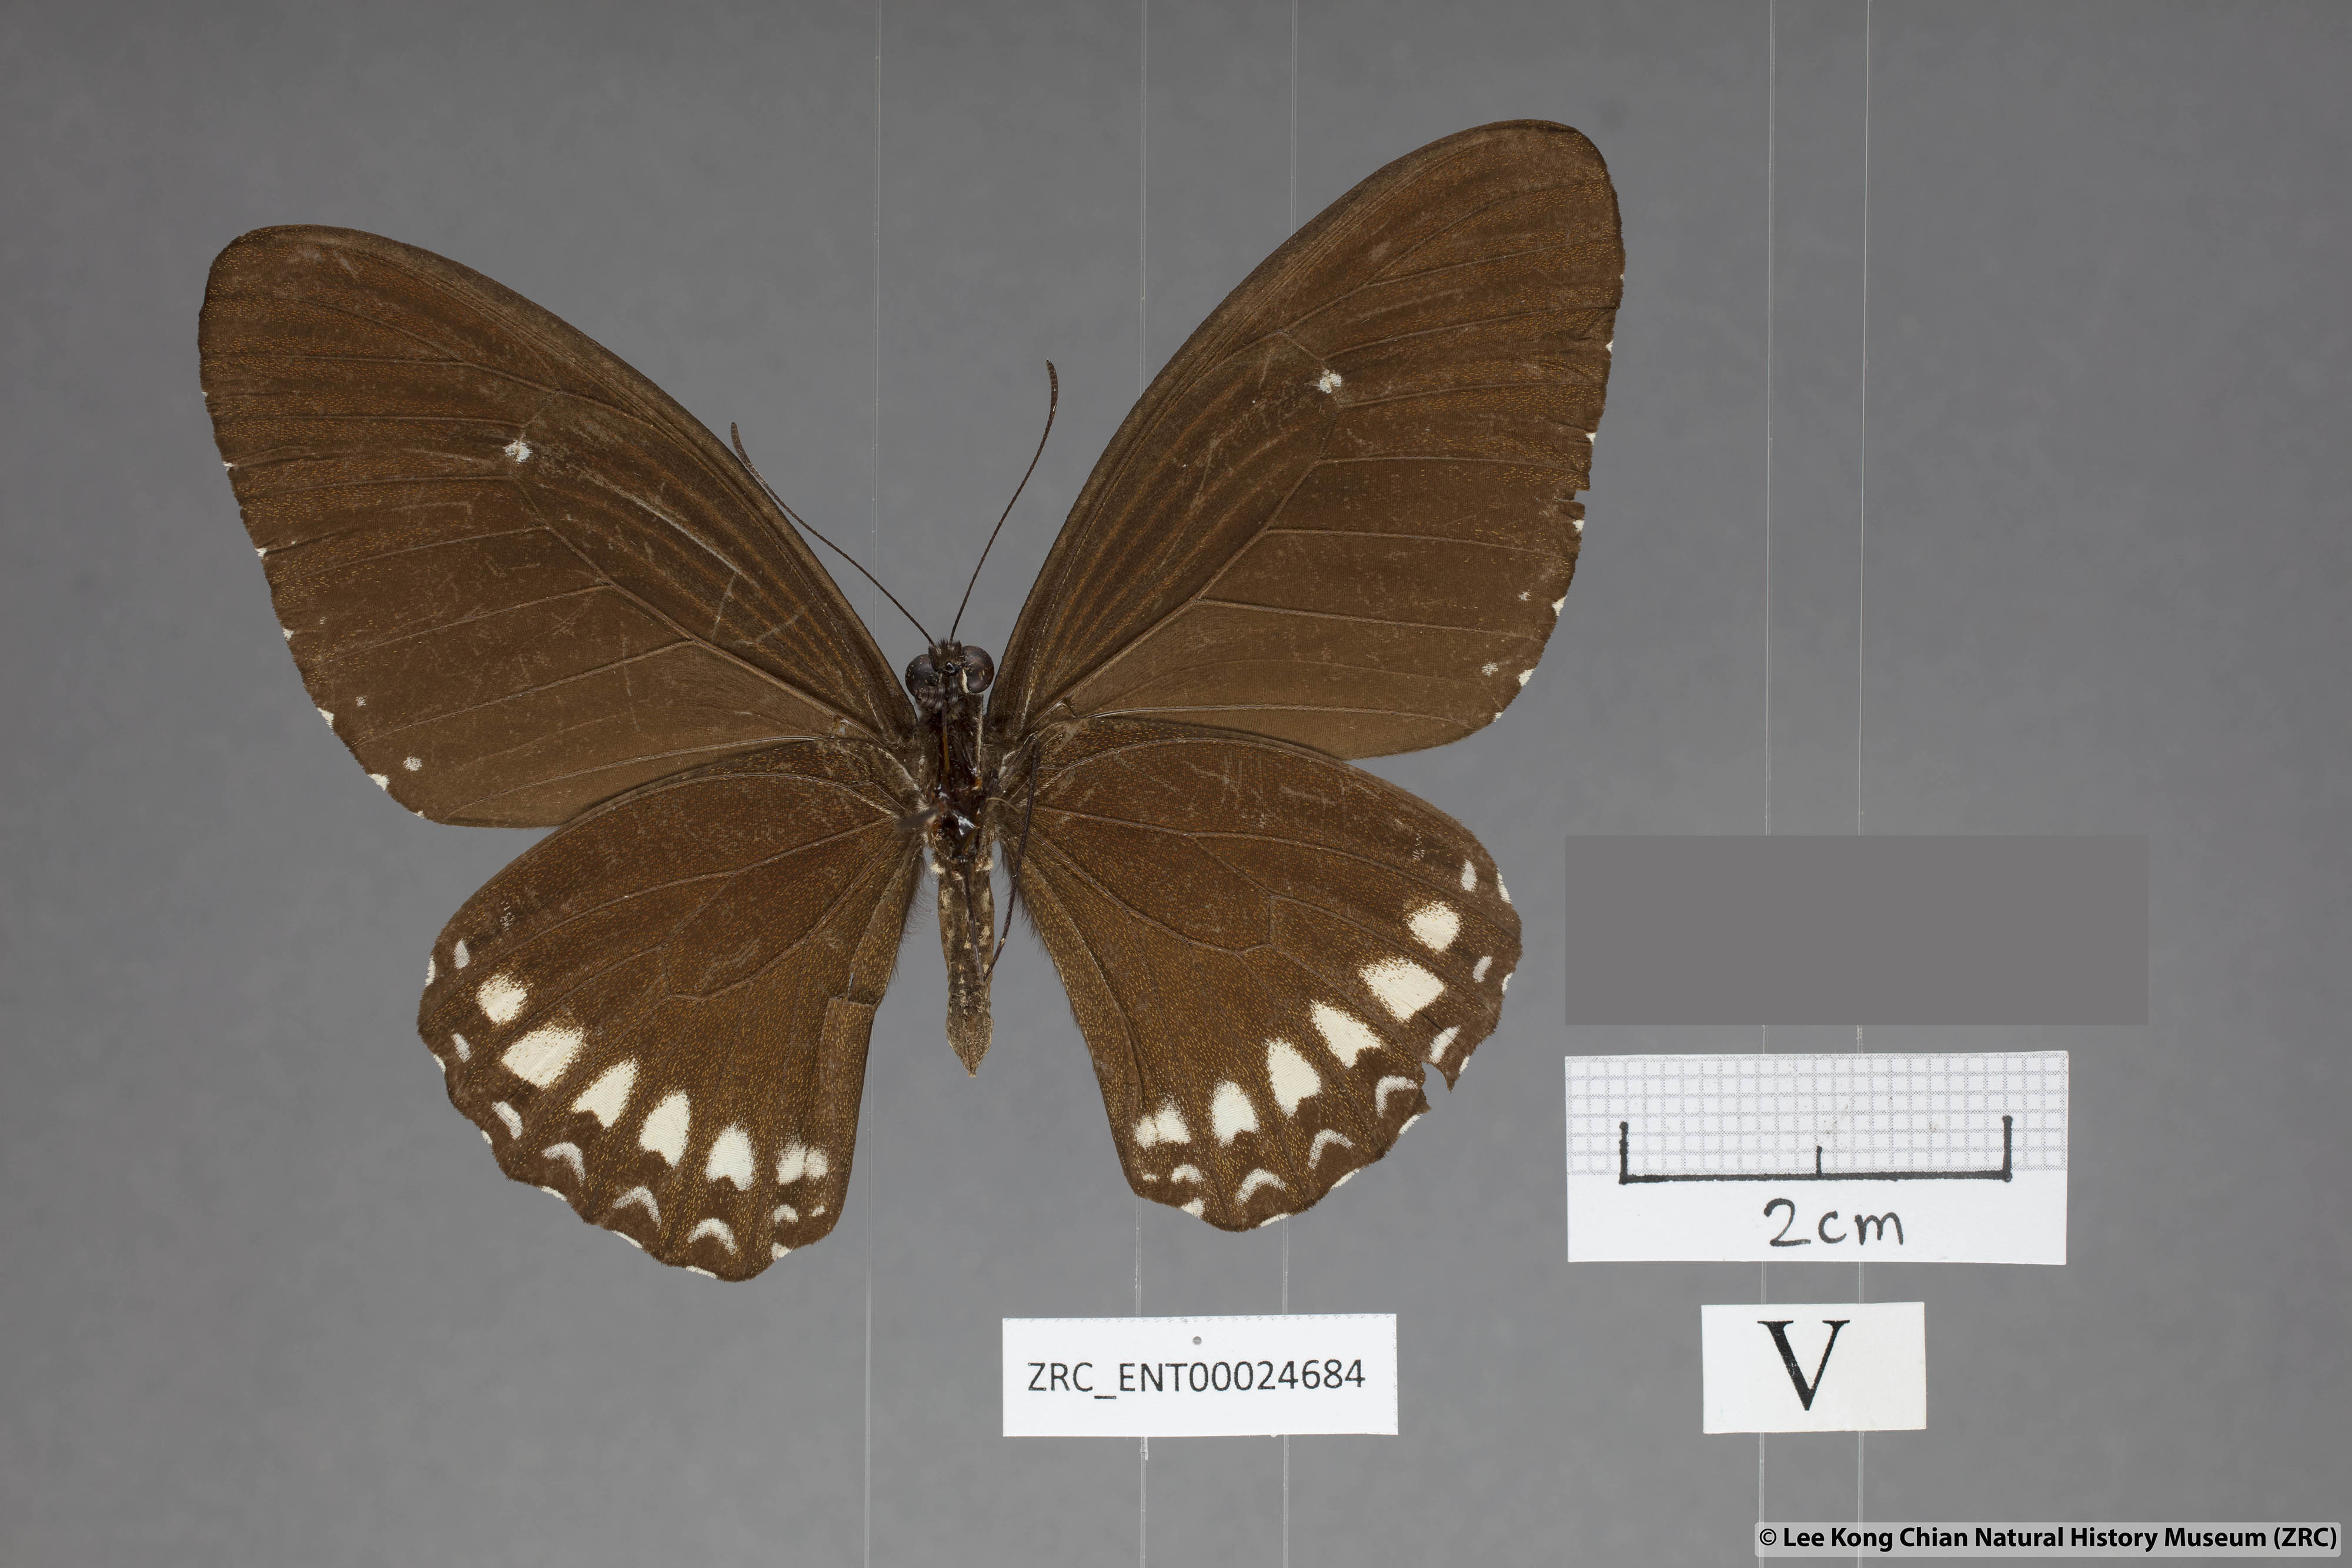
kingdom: Animalia
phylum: Arthropoda
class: Insecta
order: Lepidoptera
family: Papilionidae
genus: Papilio
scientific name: Papilio mahadeva
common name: Burmese raven
